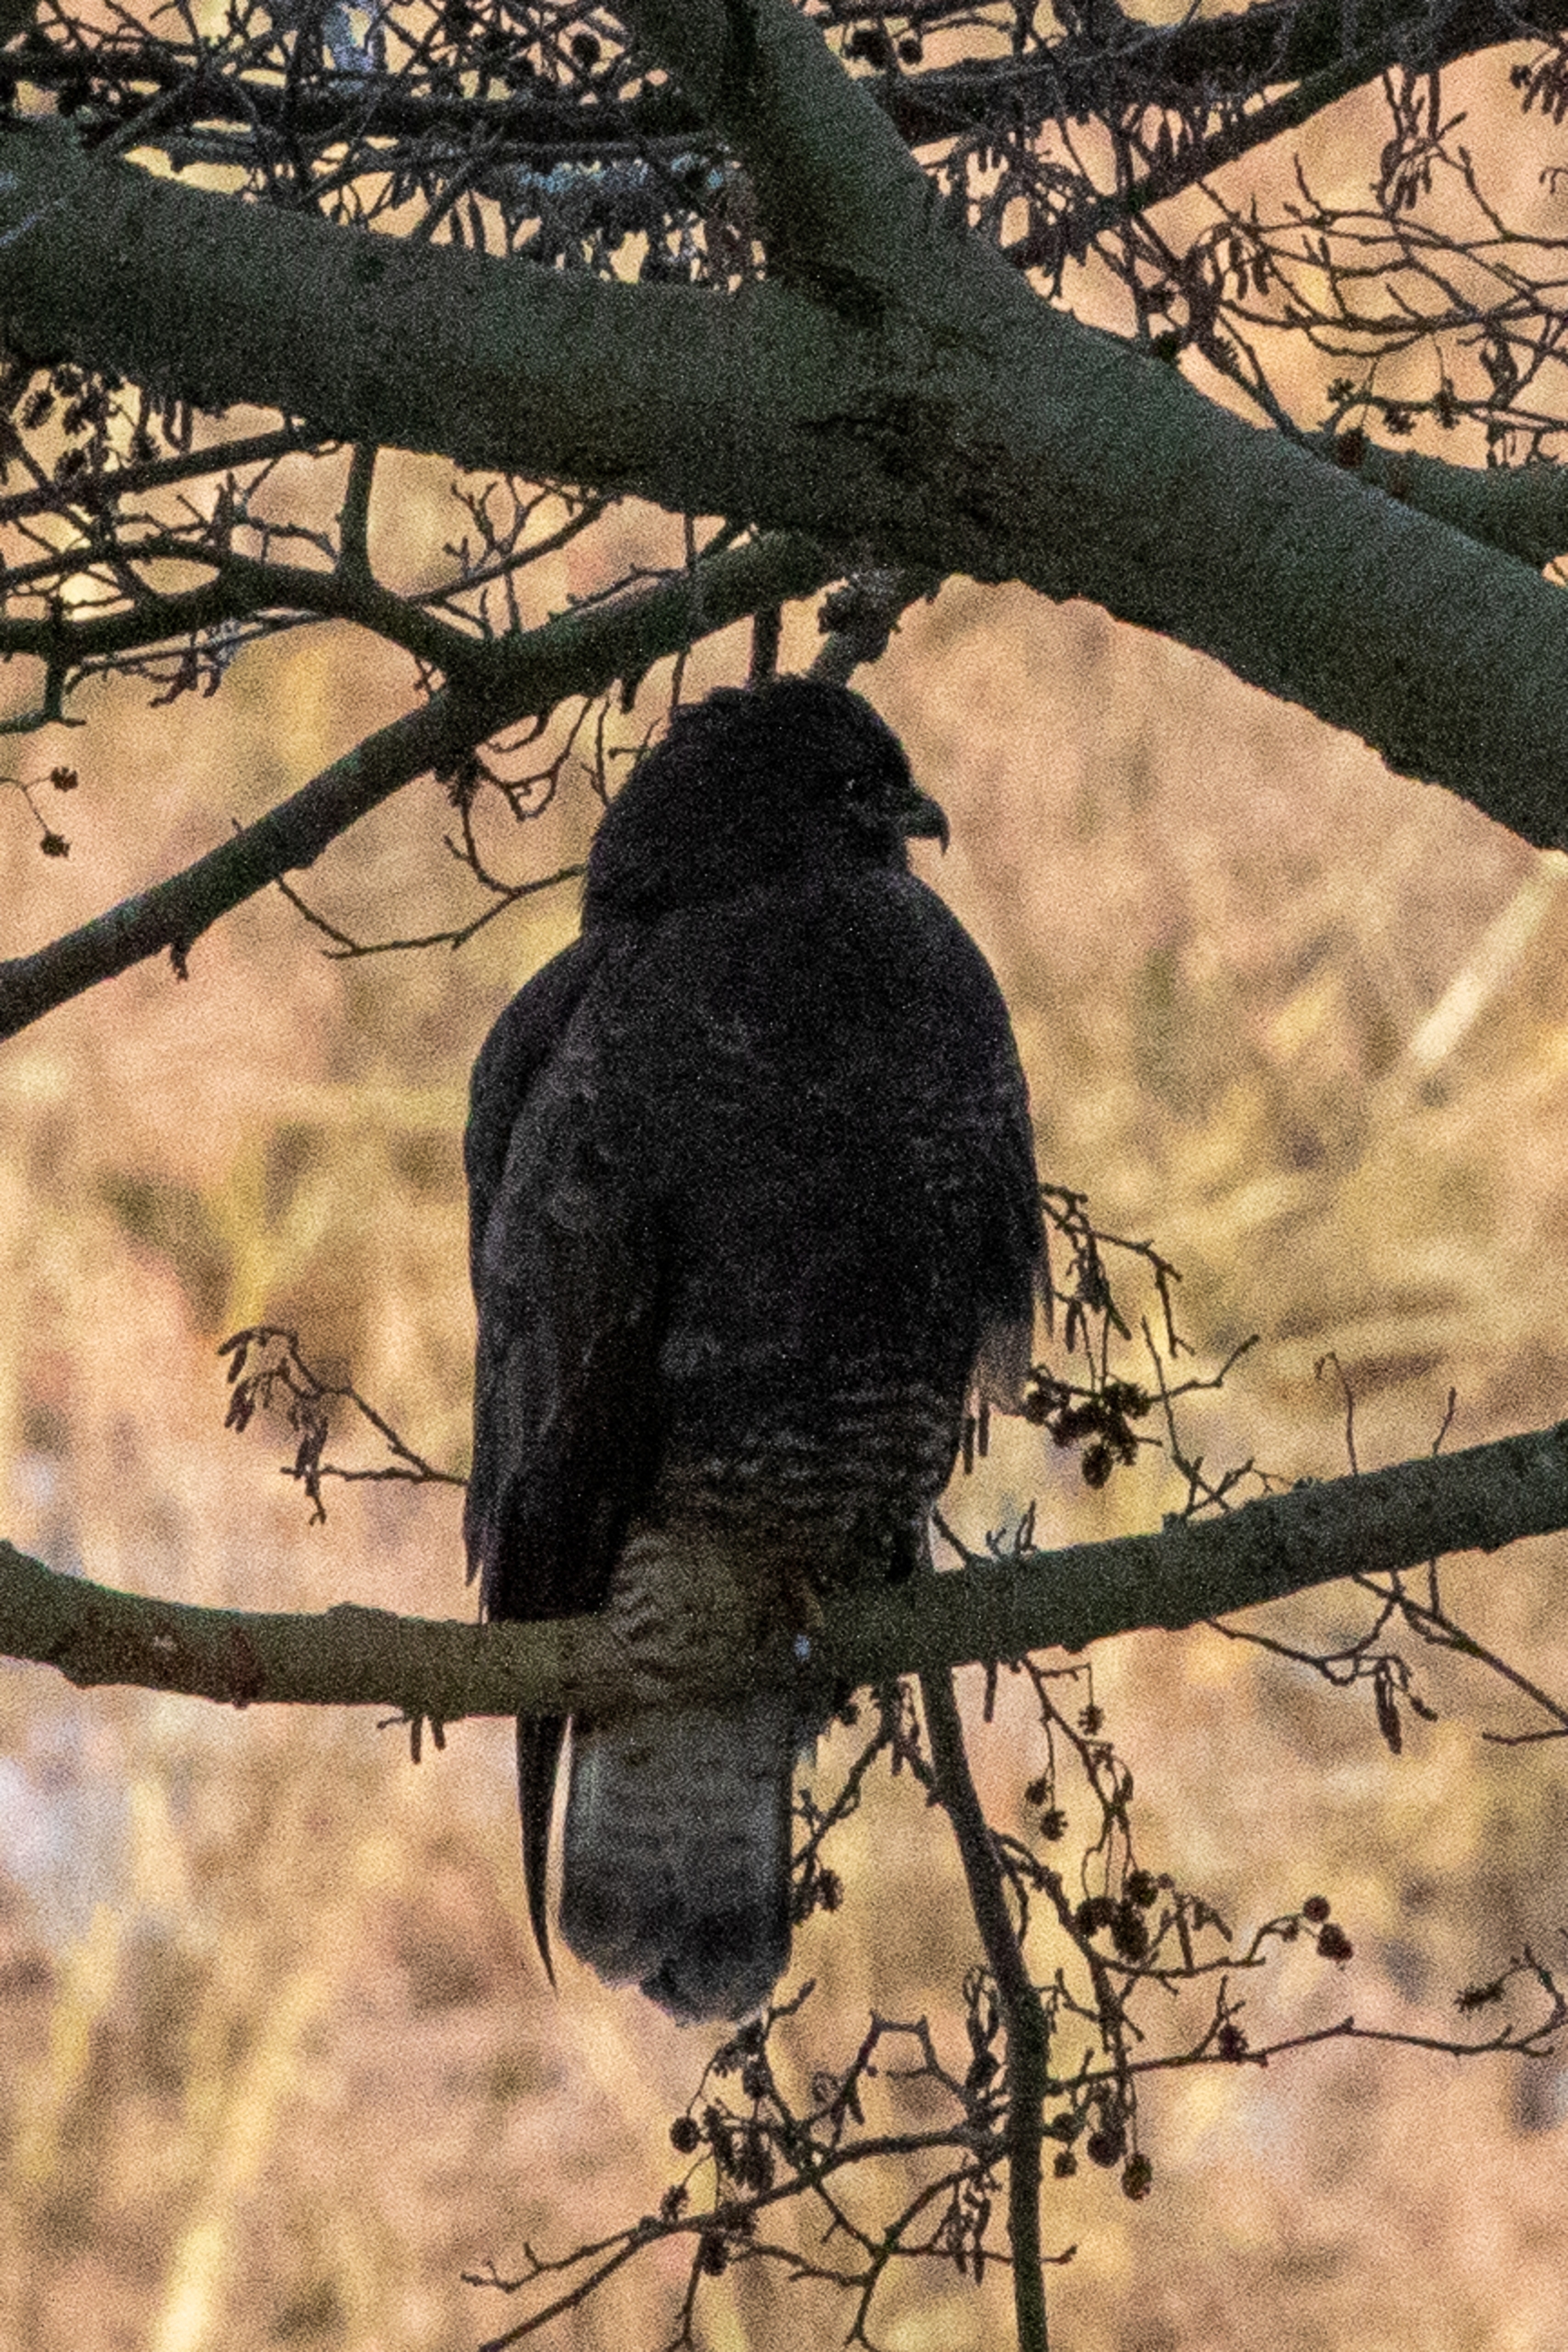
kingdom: Animalia
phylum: Chordata
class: Aves
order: Accipitriformes
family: Accipitridae
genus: Buteo
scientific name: Buteo buteo
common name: Musvåge
